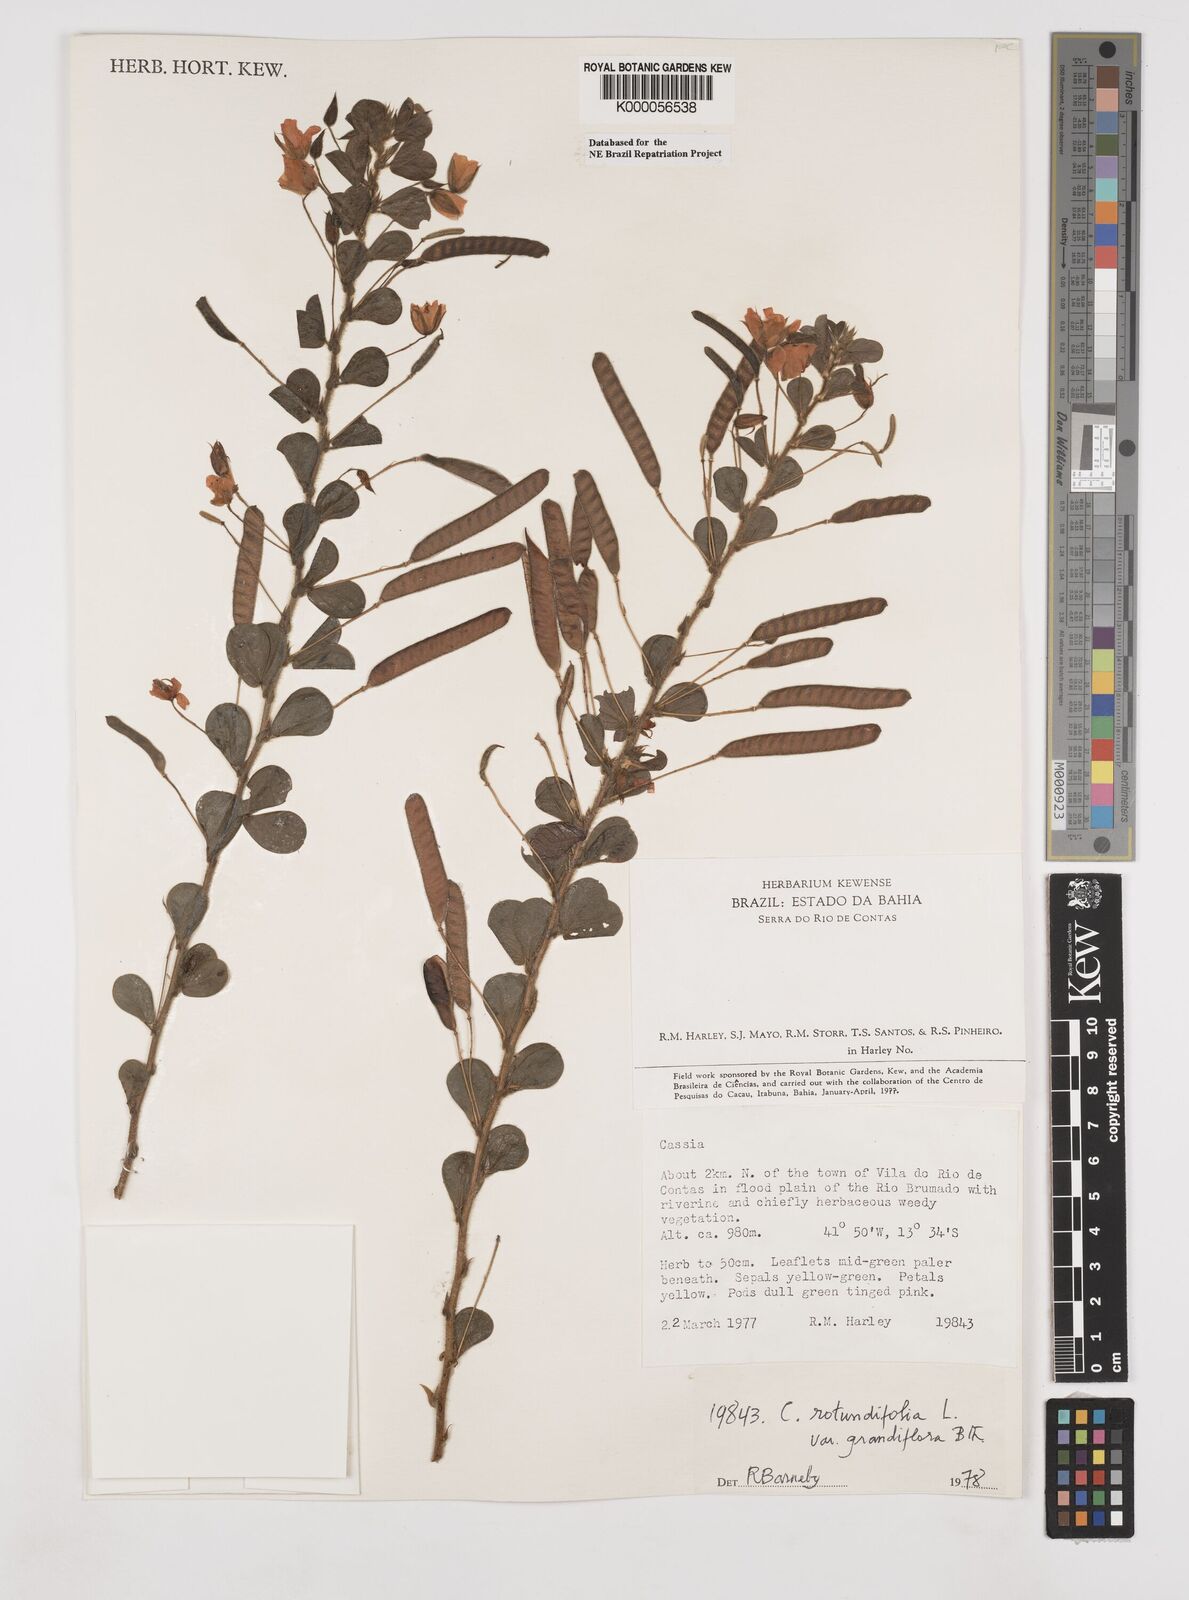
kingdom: Plantae
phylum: Tracheophyta
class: Magnoliopsida
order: Fabales
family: Fabaceae
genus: Chamaecrista
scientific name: Chamaecrista rotundifolia
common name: Round-leaf cassia
